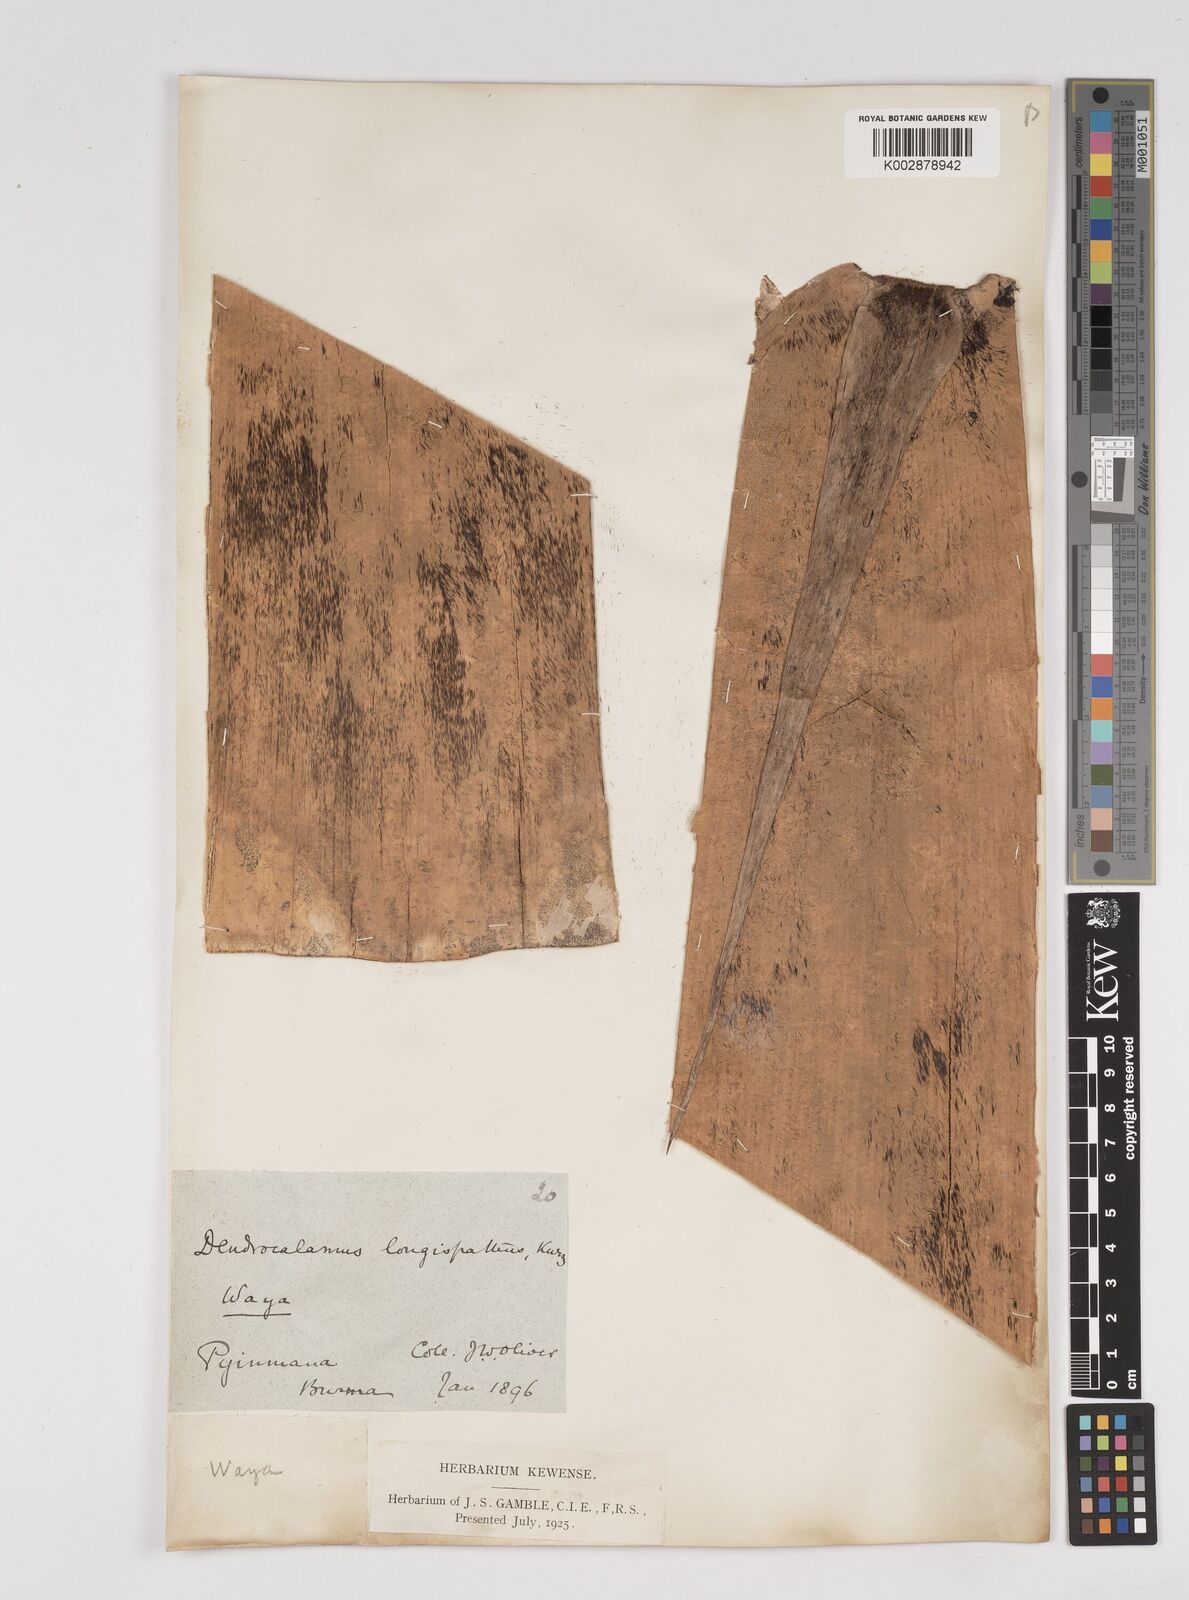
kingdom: Plantae
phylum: Tracheophyta
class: Liliopsida
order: Poales
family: Poaceae
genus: Dendrocalamus
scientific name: Dendrocalamus longispathus
